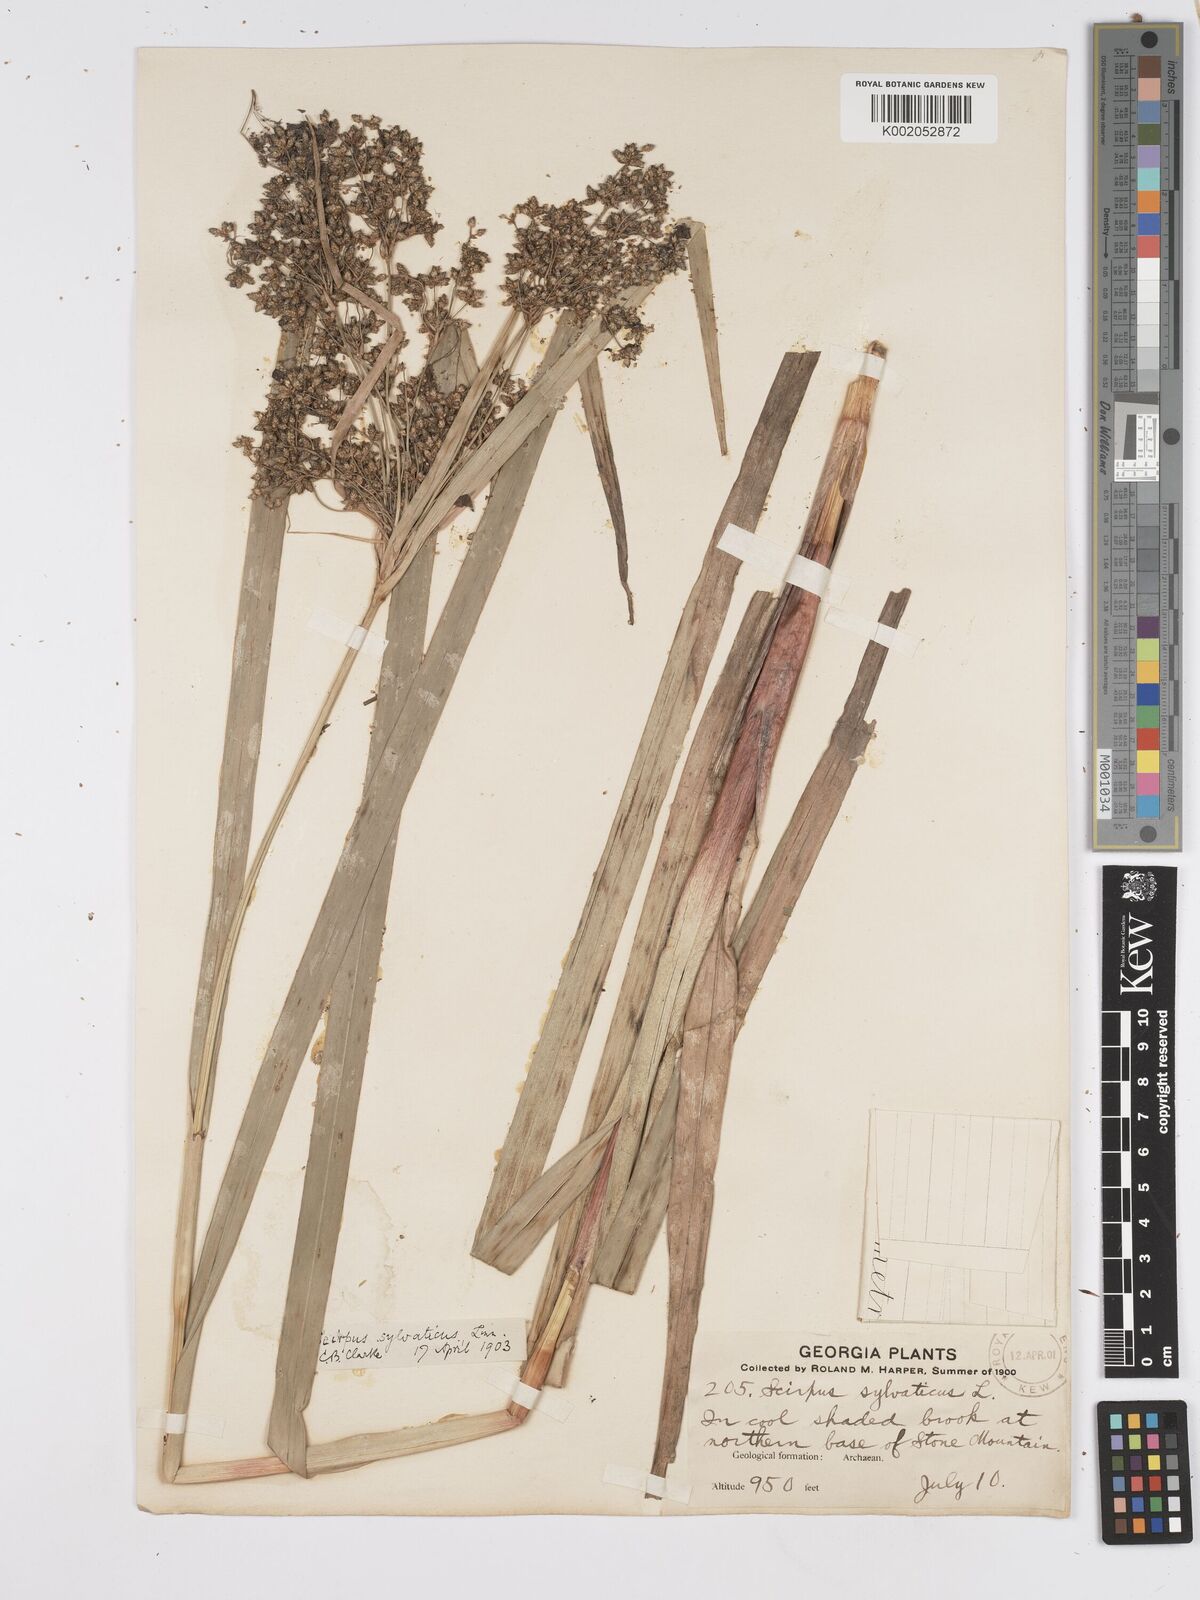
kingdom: Plantae
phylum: Tracheophyta
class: Liliopsida
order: Poales
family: Cyperaceae
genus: Scirpus
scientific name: Scirpus sylvaticus
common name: Wood club-rush
